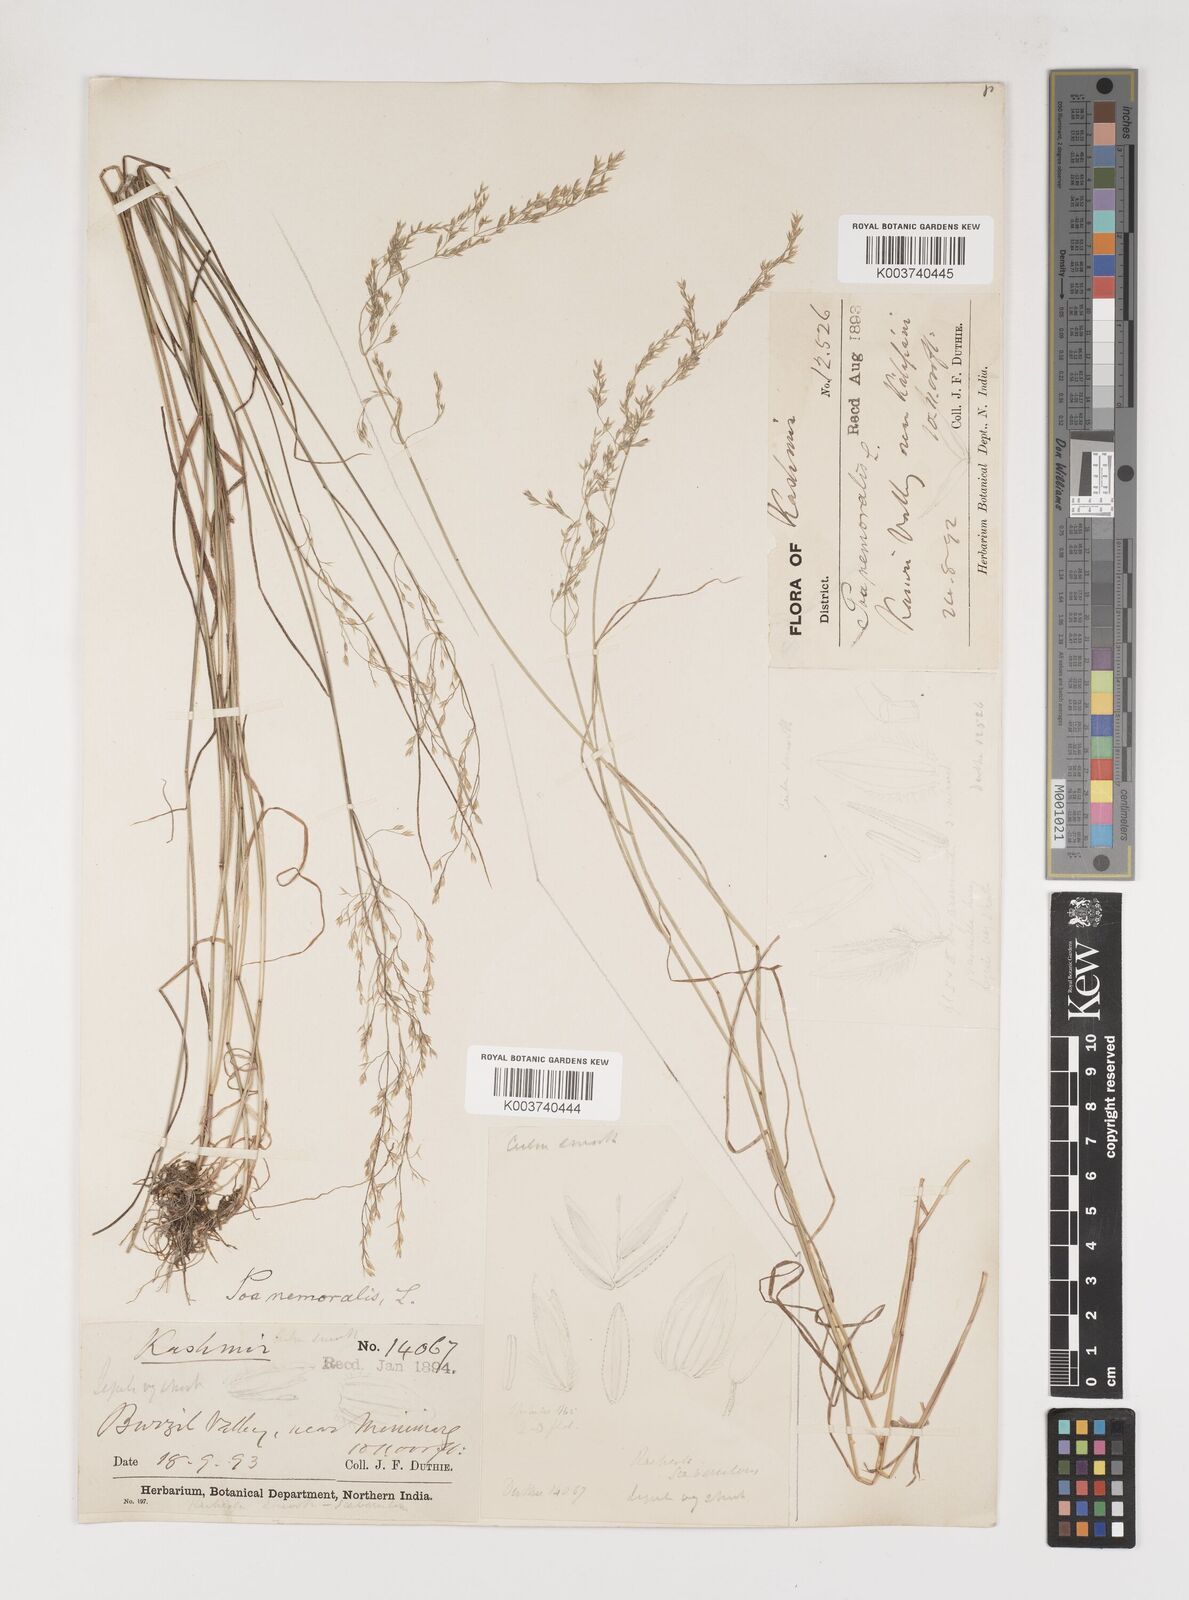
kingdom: Plantae
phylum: Tracheophyta
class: Liliopsida
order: Poales
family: Poaceae
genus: Poa
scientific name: Poa nemoralis
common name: Wood bluegrass
